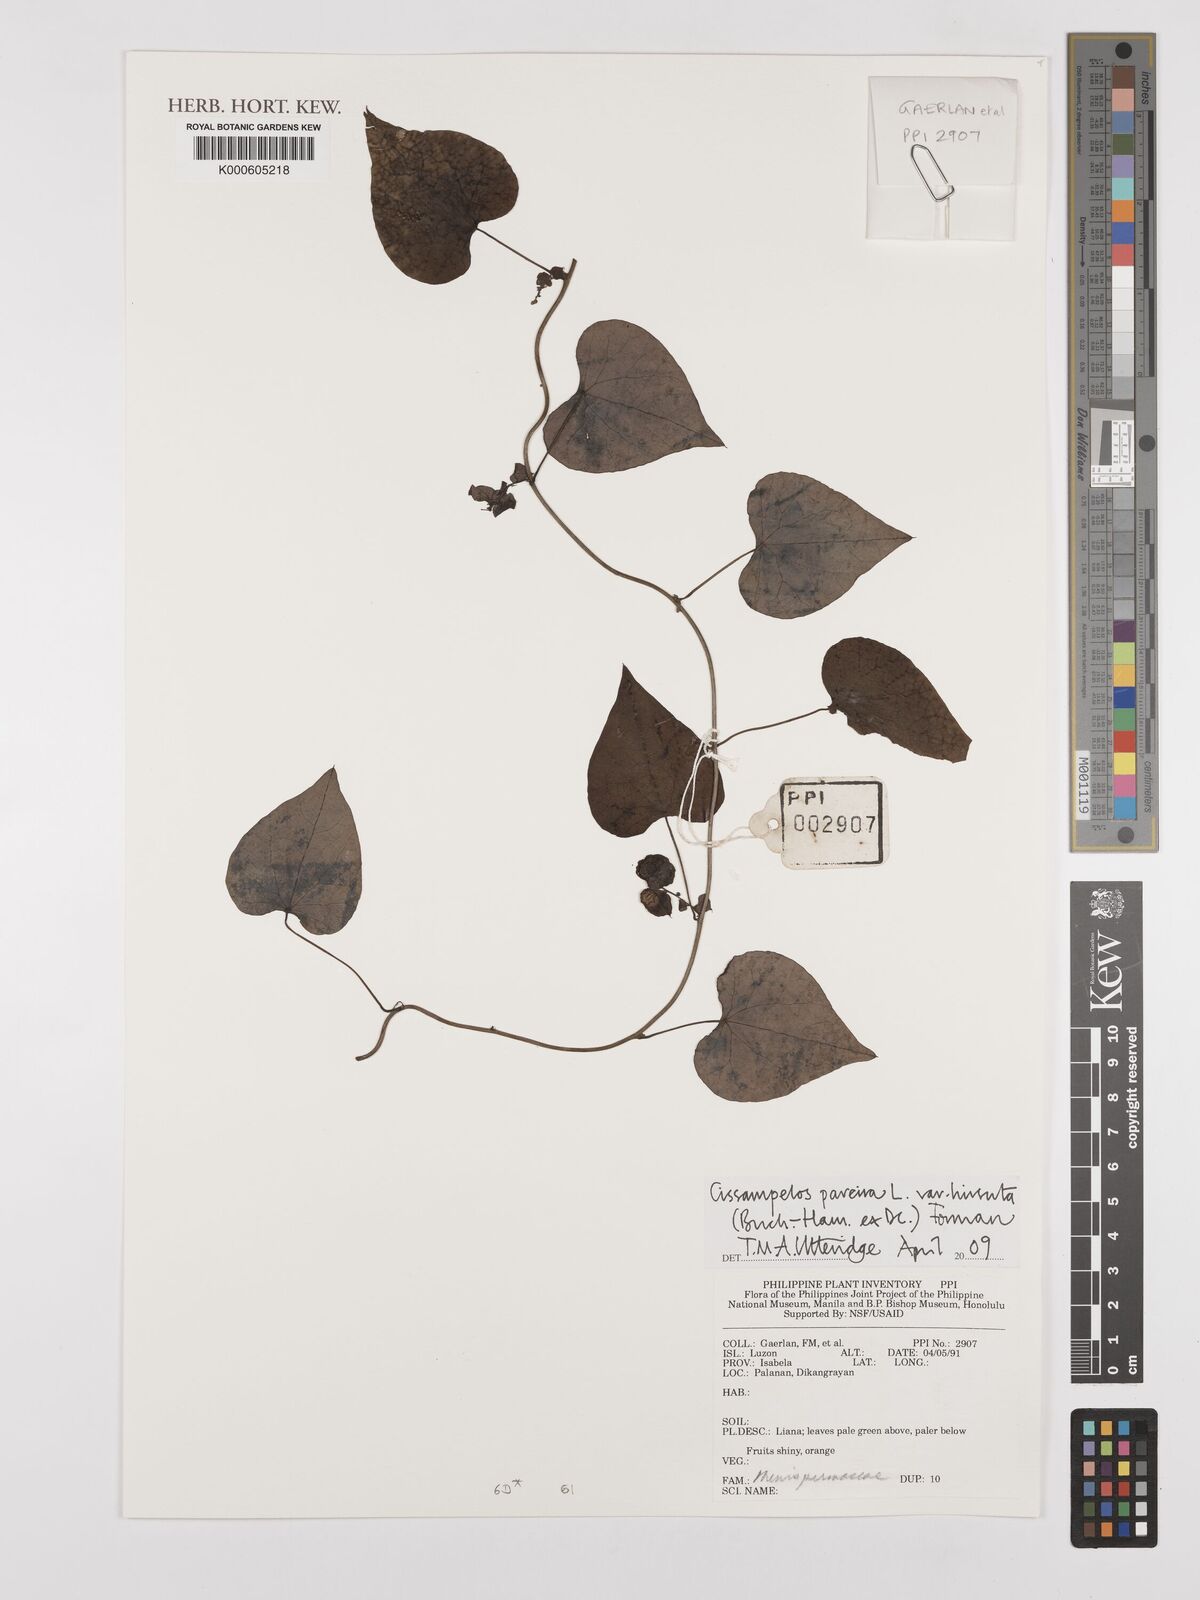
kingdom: Plantae
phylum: Tracheophyta
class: Magnoliopsida
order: Ranunculales
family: Menispermaceae
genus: Cissampelos
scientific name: Cissampelos pareira
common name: Velvetleaf
